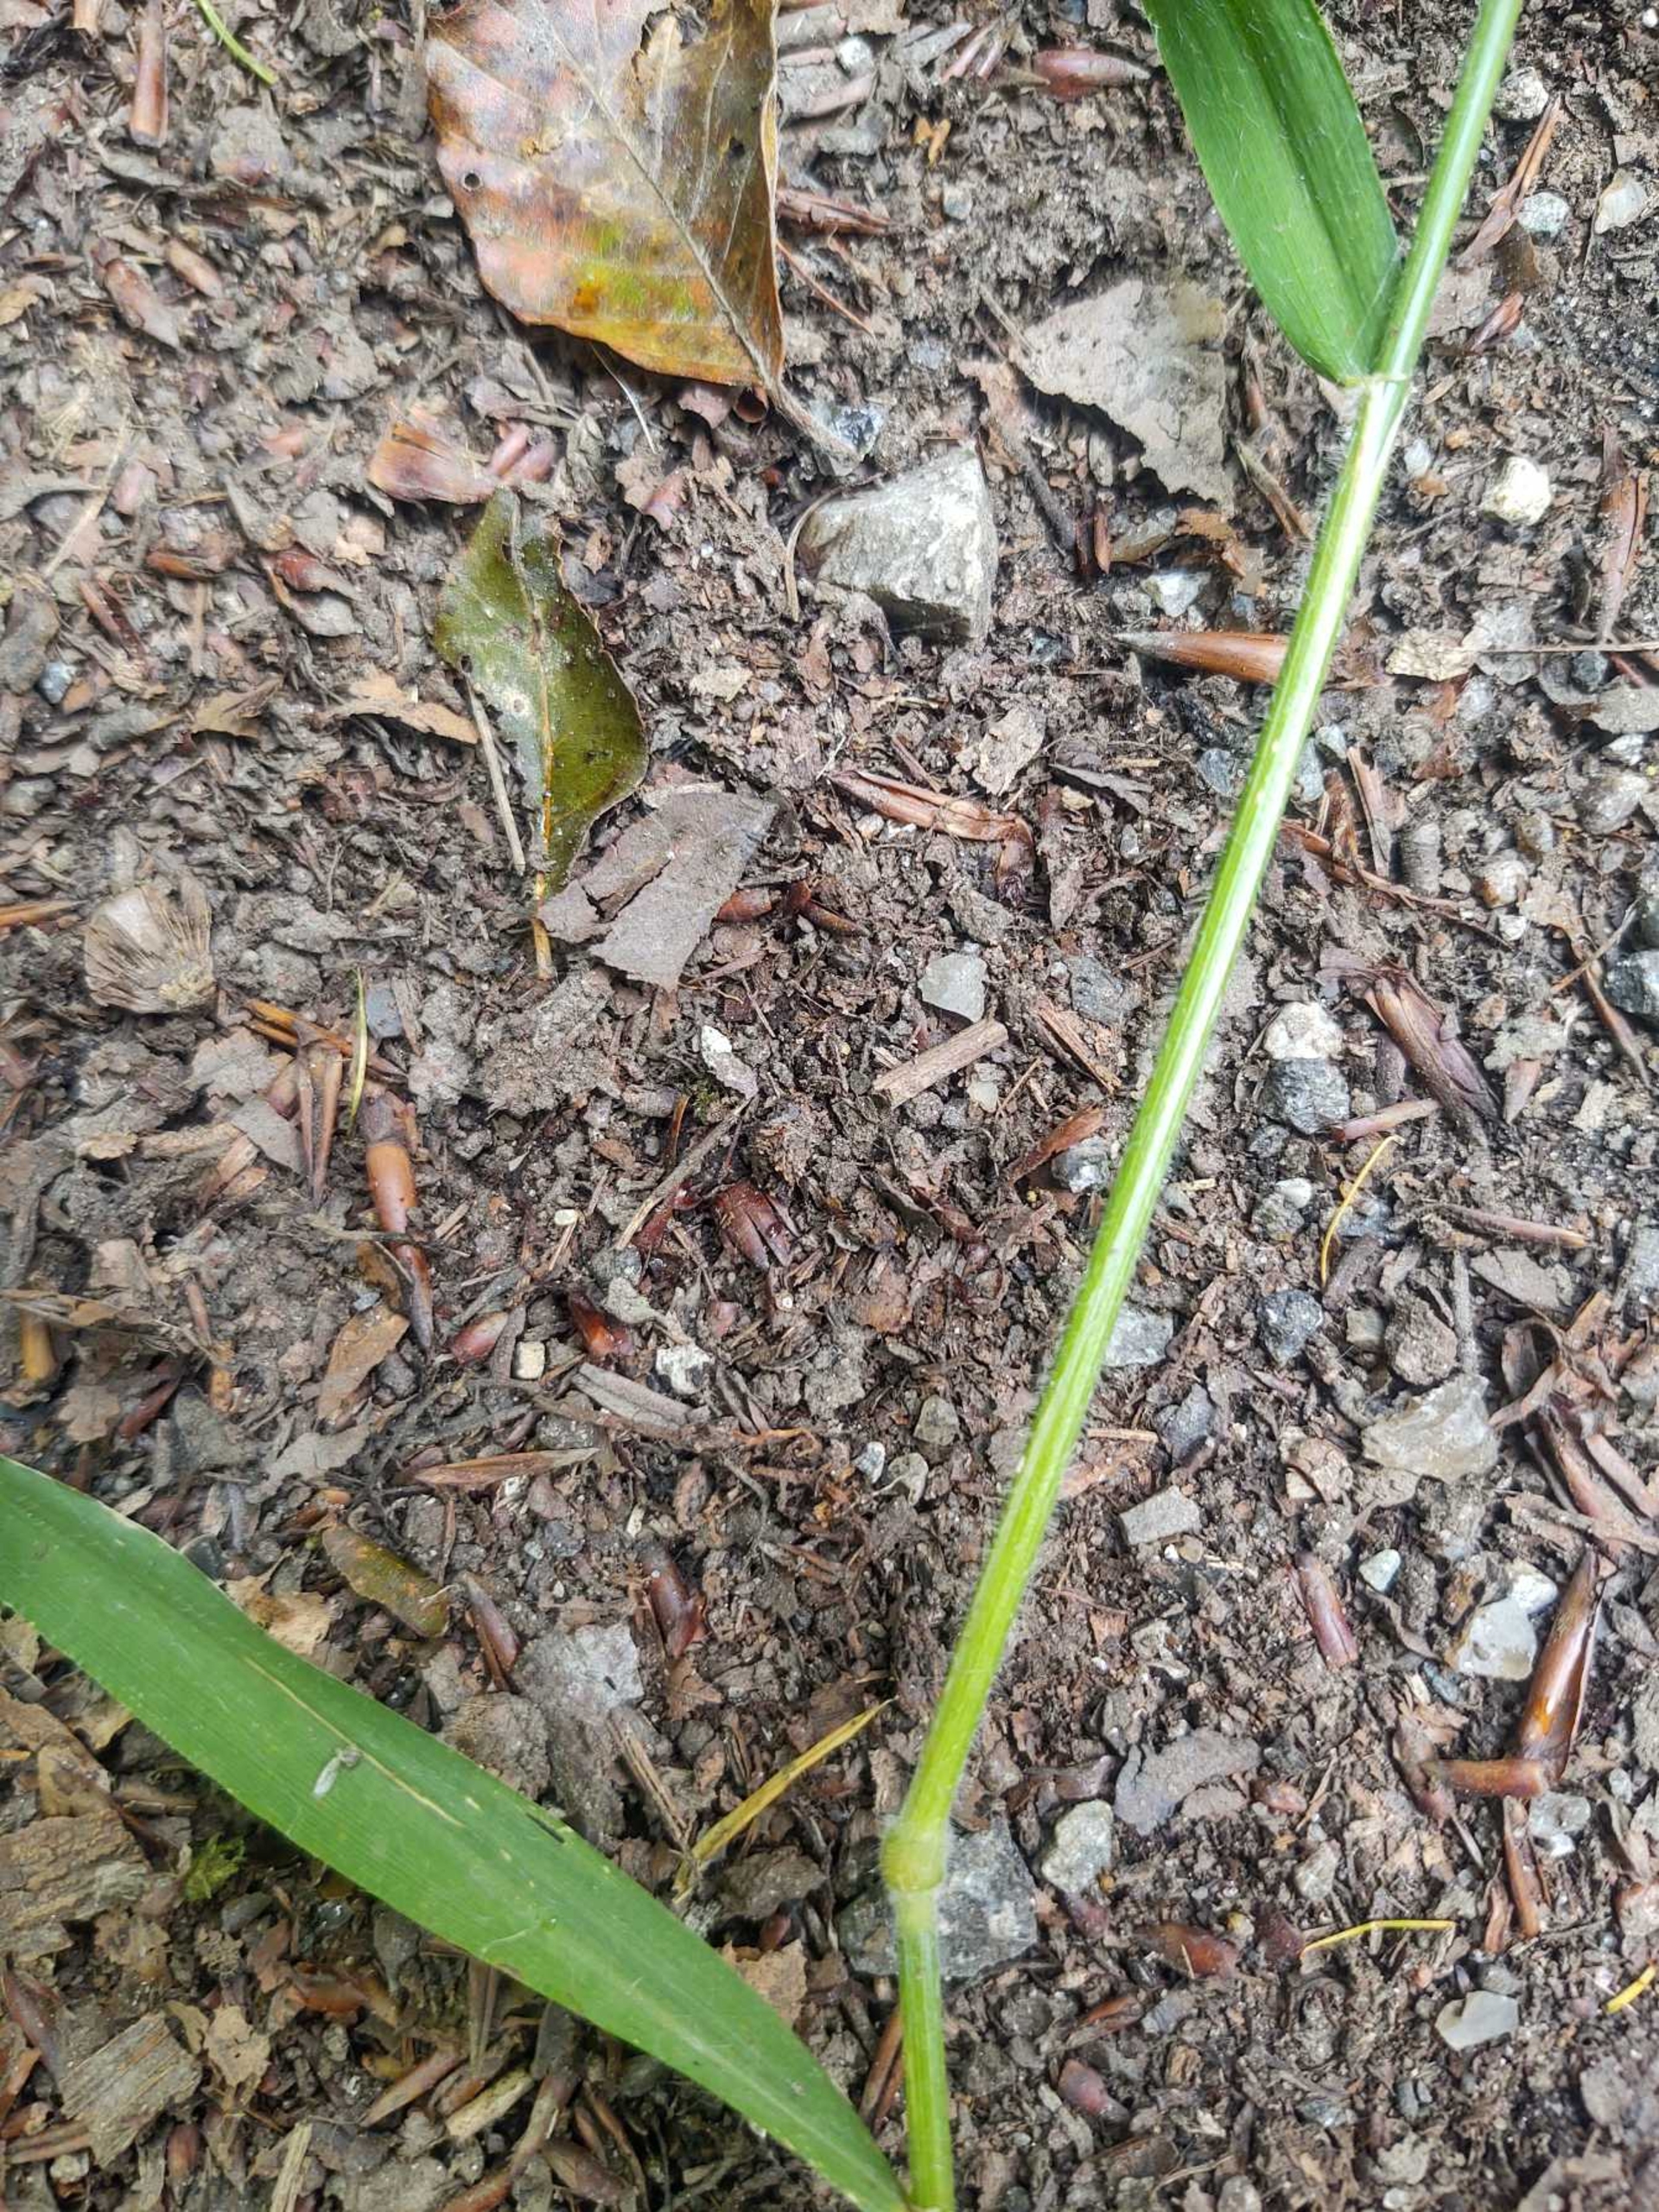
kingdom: Plantae
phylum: Tracheophyta
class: Liliopsida
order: Poales
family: Poaceae
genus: Hordelymus
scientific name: Hordelymus europaeus
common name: Skovbyg
